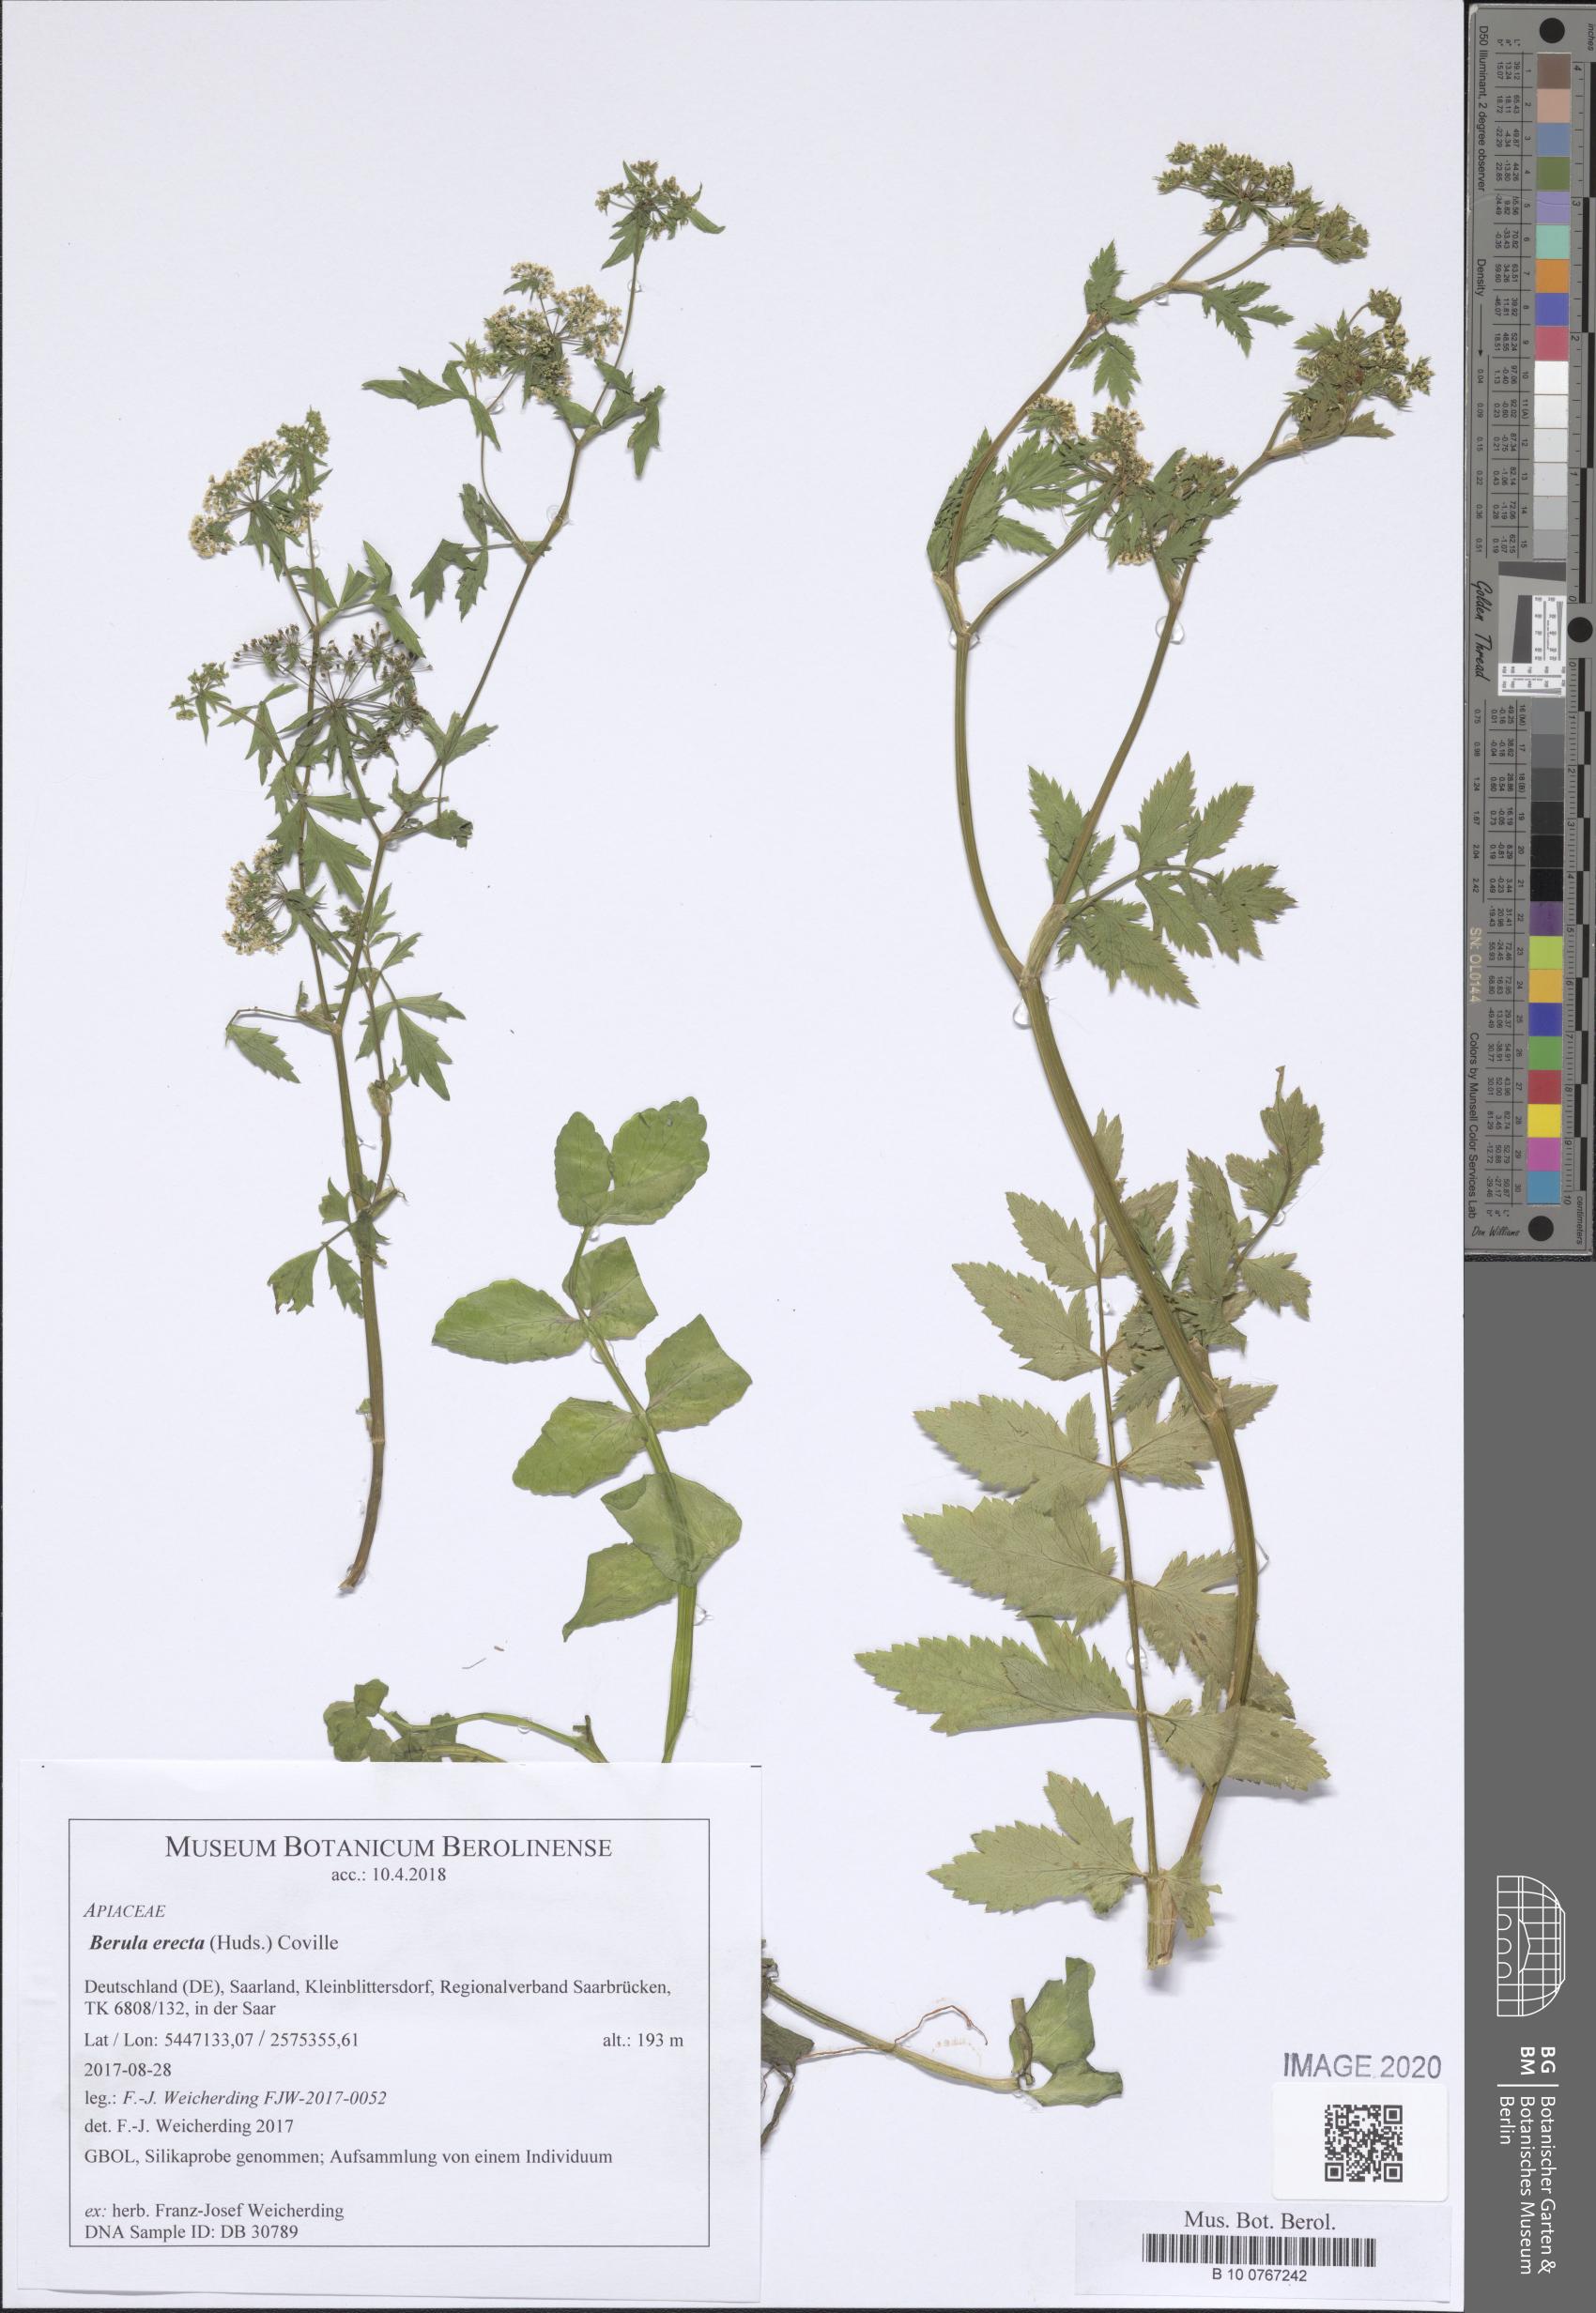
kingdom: Plantae
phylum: Tracheophyta
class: Magnoliopsida
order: Apiales
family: Apiaceae
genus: Berula
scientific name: Berula erecta
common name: Lesser water-parsnip
